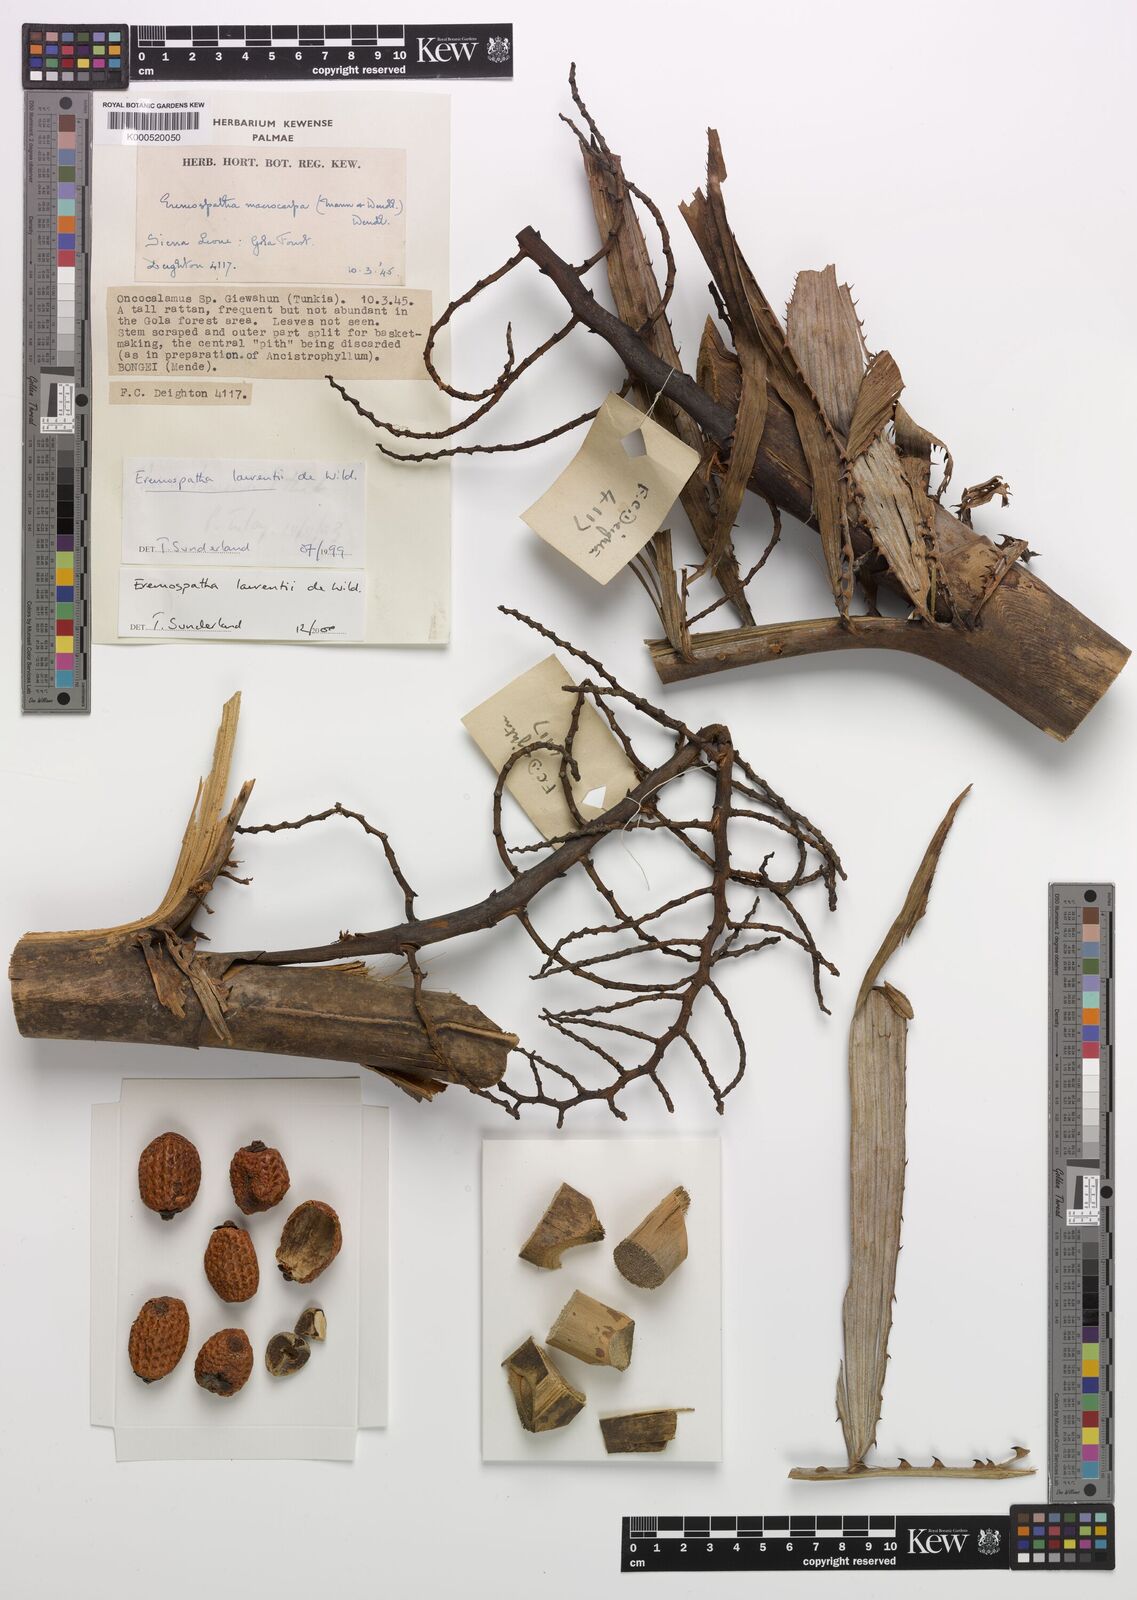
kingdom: Plantae
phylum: Tracheophyta
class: Liliopsida
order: Arecales
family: Arecaceae
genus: Eremospatha
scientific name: Eremospatha laurentii
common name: Rattan palm
